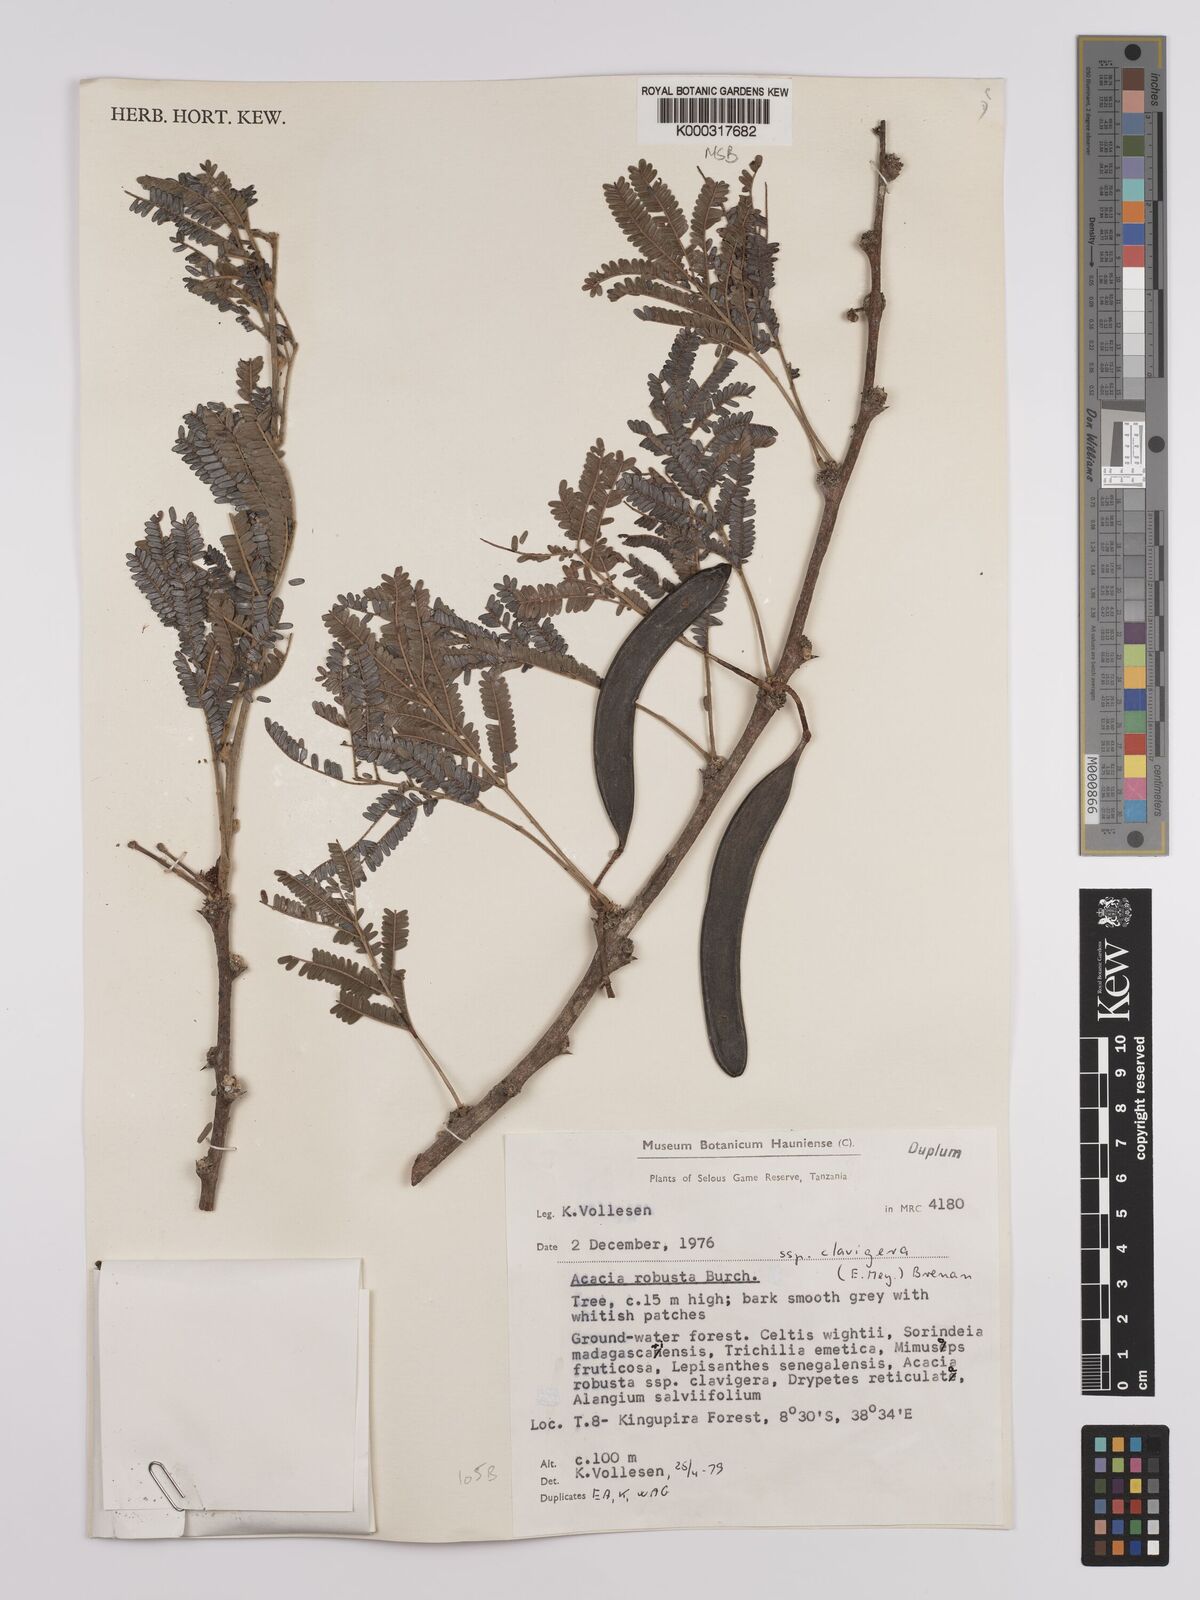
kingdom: Plantae
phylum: Tracheophyta
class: Magnoliopsida
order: Fabales
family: Fabaceae
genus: Vachellia
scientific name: Vachellia robusta
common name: Ankle thorn
